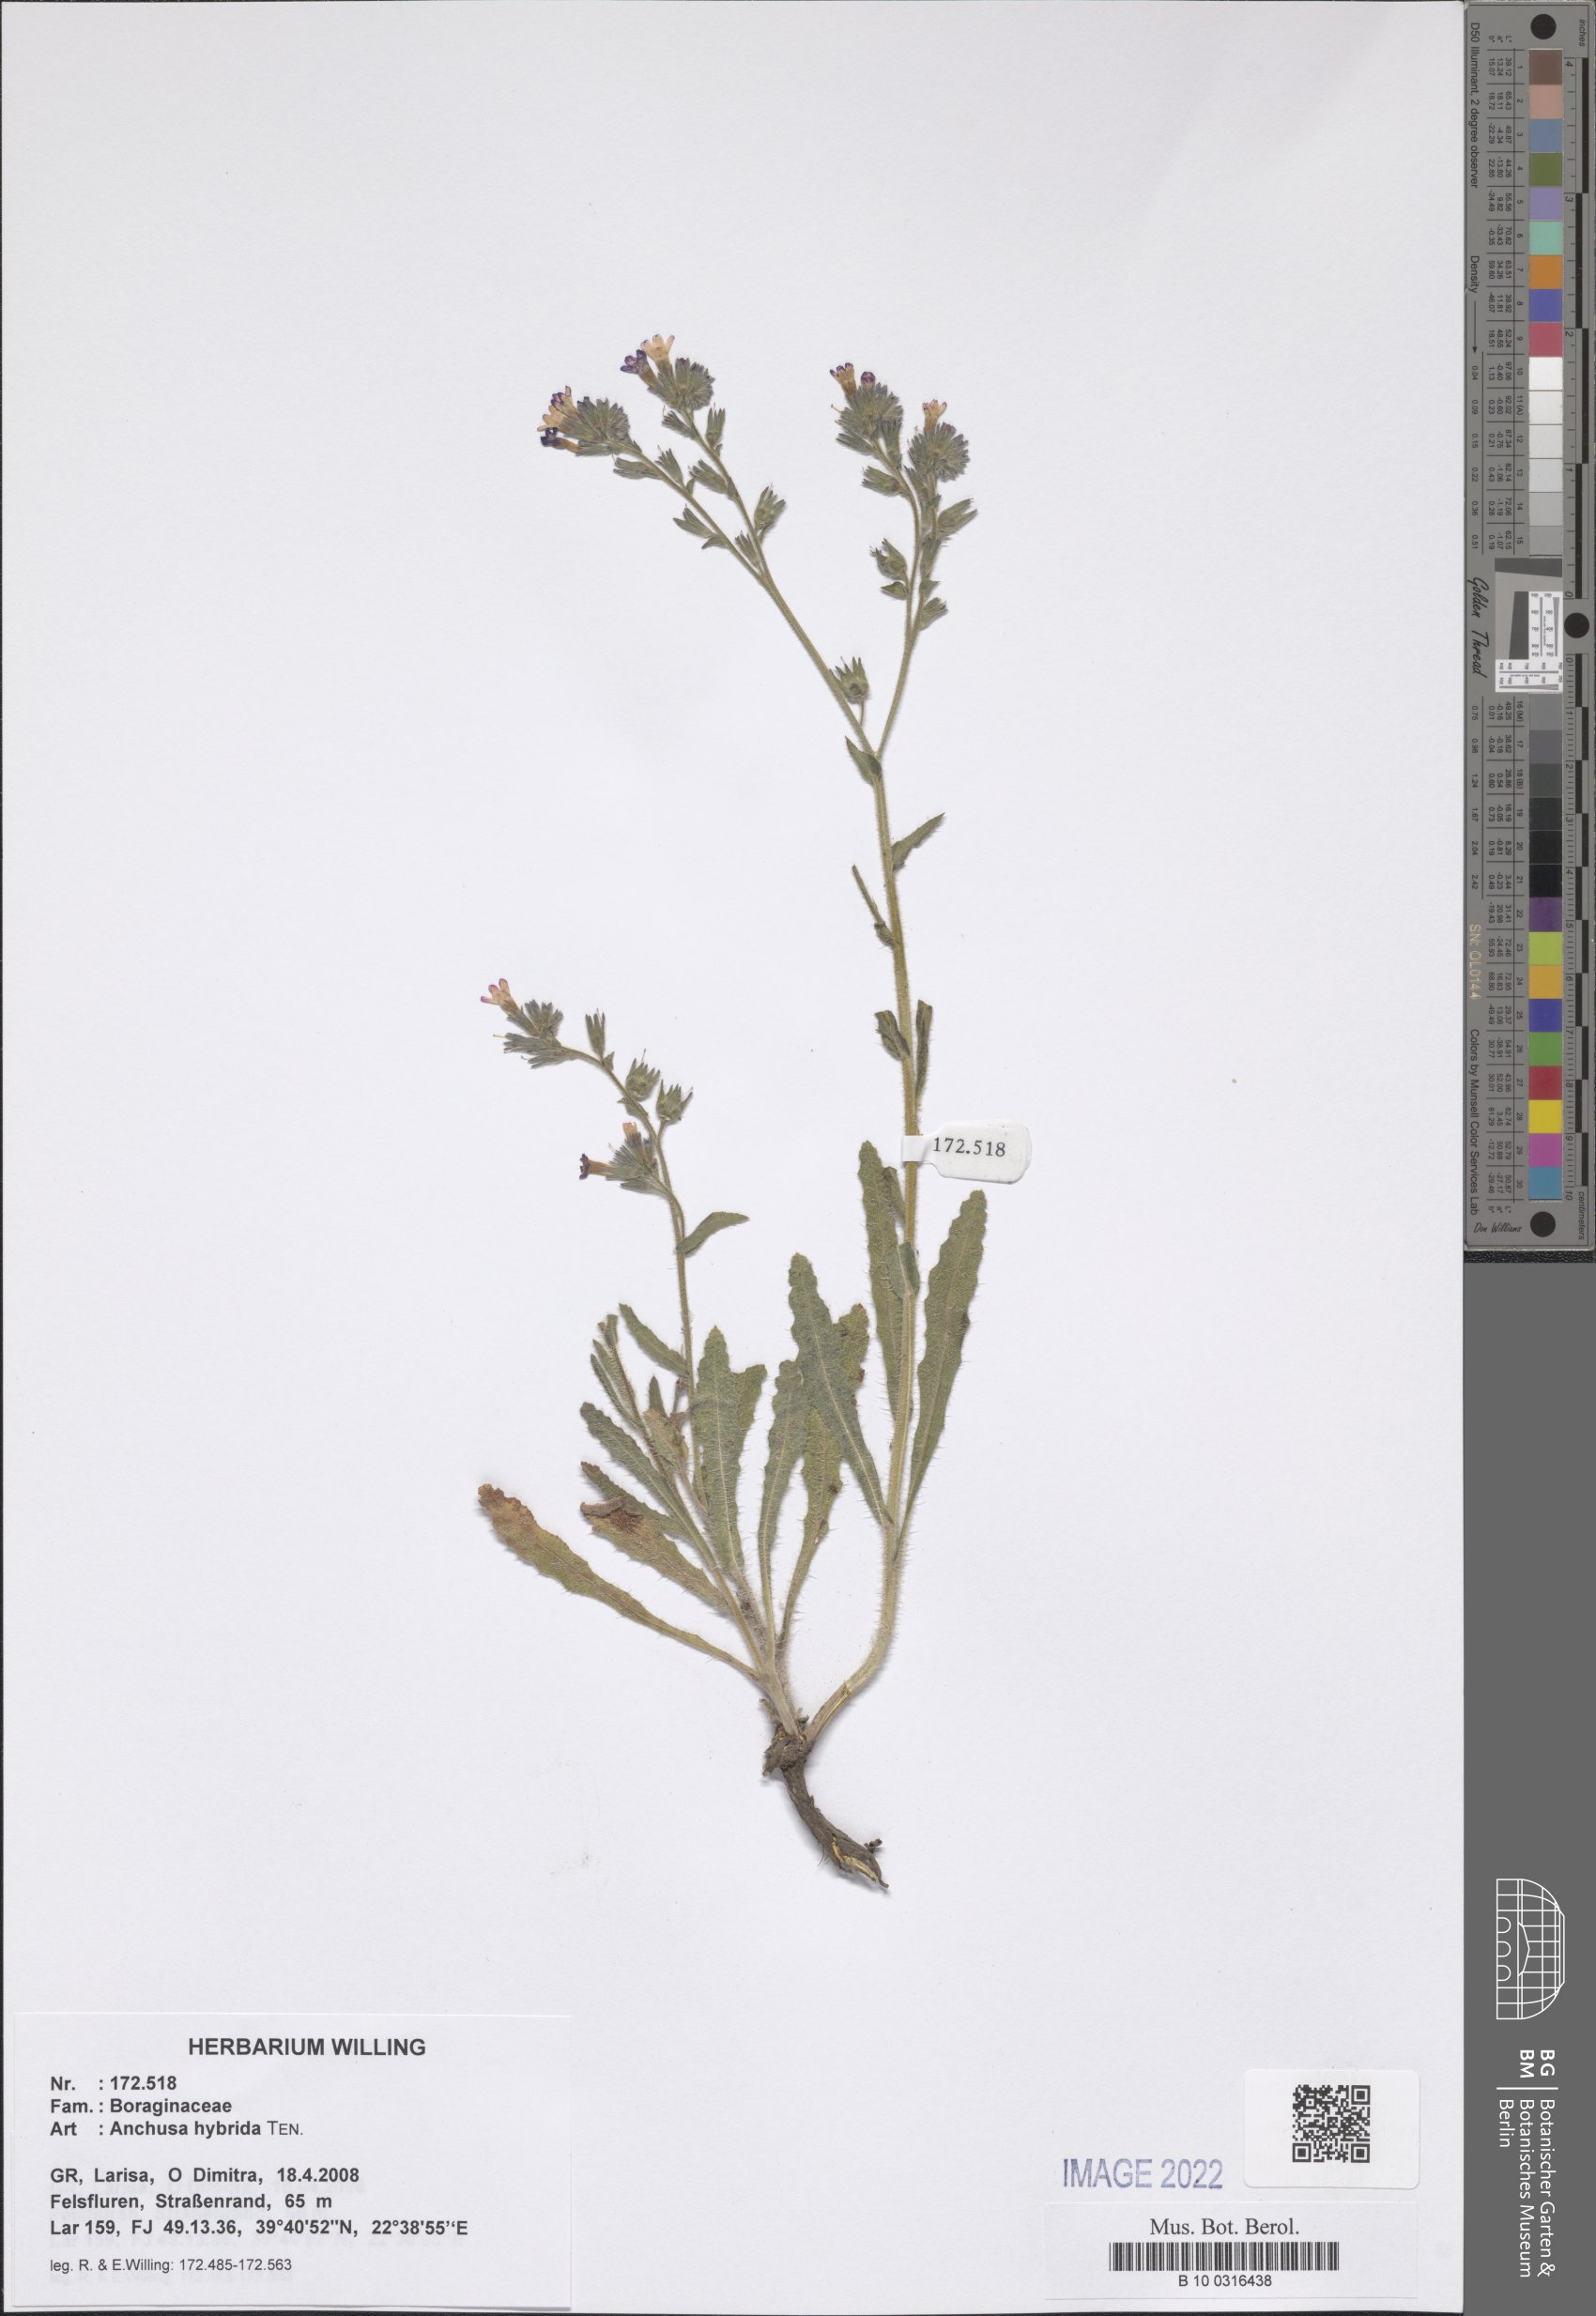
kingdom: Plantae
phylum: Tracheophyta
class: Magnoliopsida
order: Boraginales
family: Boraginaceae
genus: Anchusa
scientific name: Anchusa hybrida
